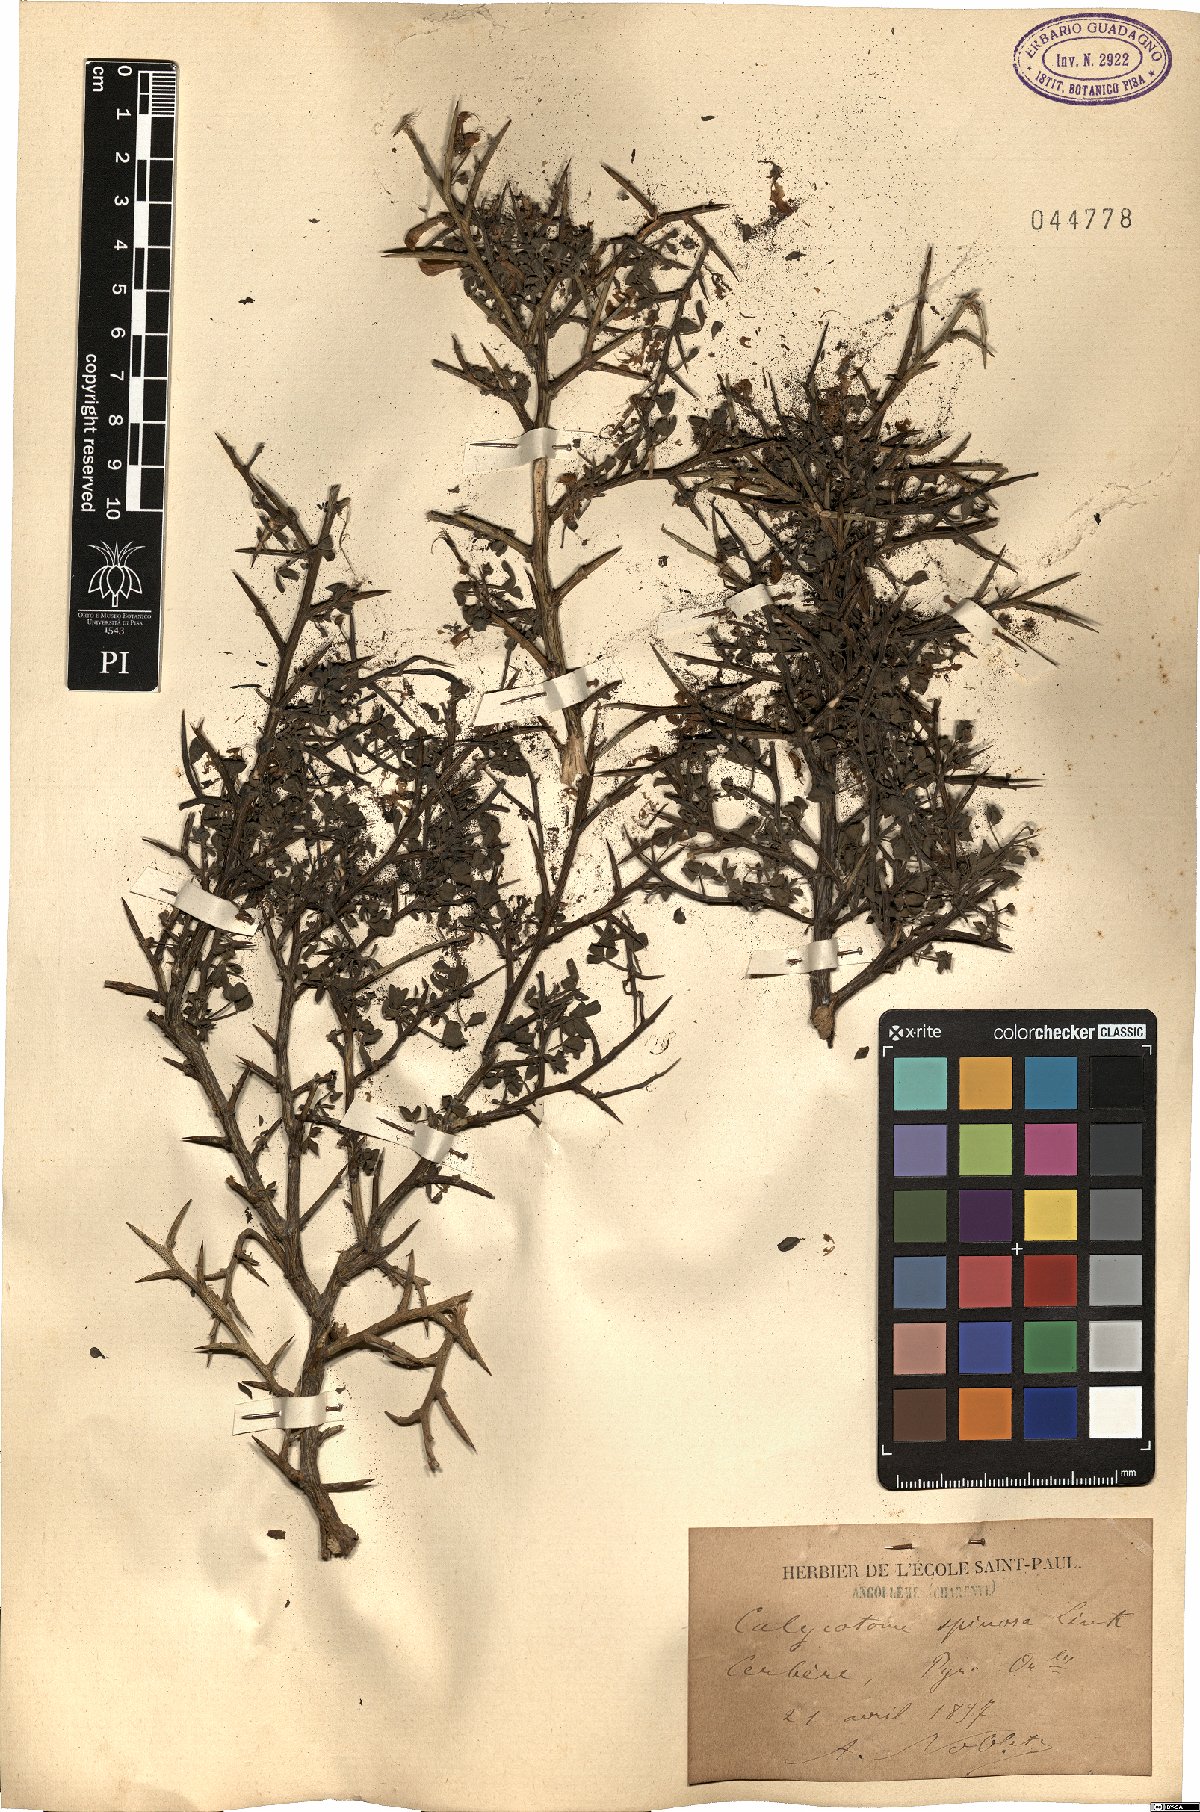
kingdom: Plantae
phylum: Tracheophyta
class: Magnoliopsida
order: Fabales
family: Fabaceae
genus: Calicotome
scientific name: Calicotome spinosa
